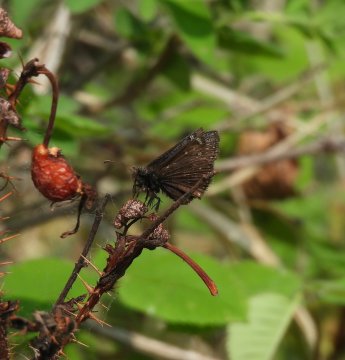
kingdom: Animalia
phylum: Arthropoda
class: Insecta
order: Lepidoptera
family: Hesperiidae
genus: Gesta
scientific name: Gesta
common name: Persius Duskywing
